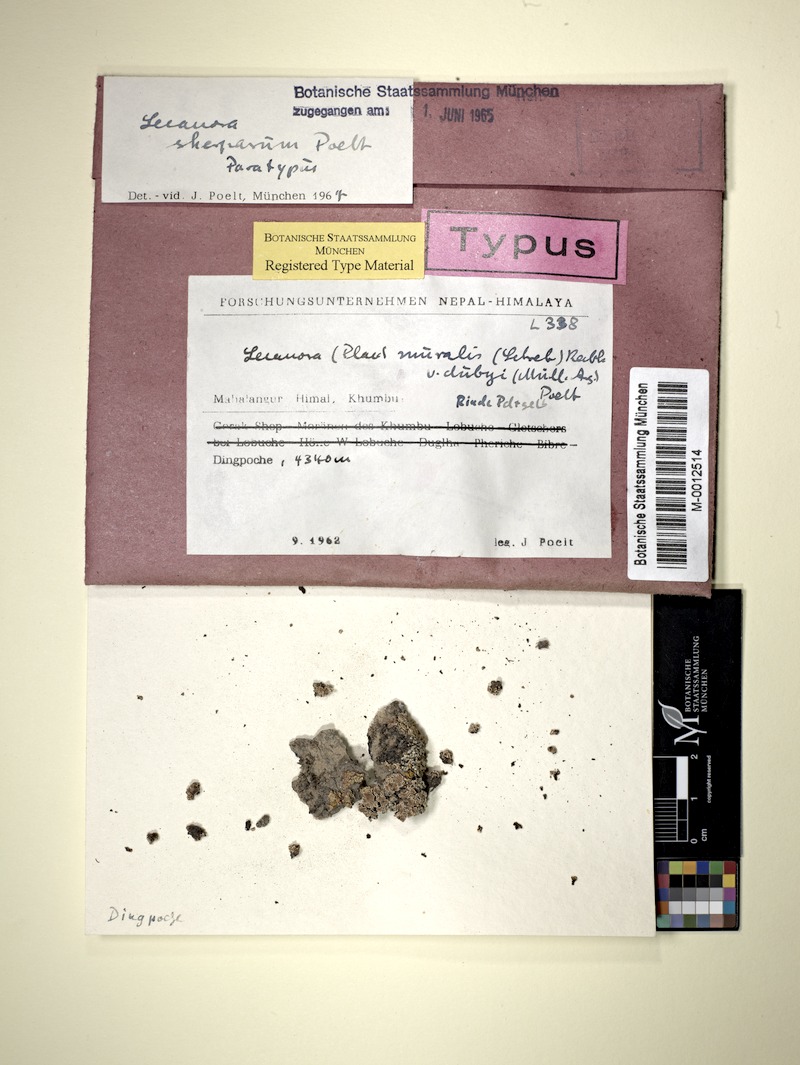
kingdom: Fungi
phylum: Ascomycota
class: Lecanoromycetes
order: Lecanorales
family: Lecanoraceae
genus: Lecanora
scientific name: Lecanora sherparum
